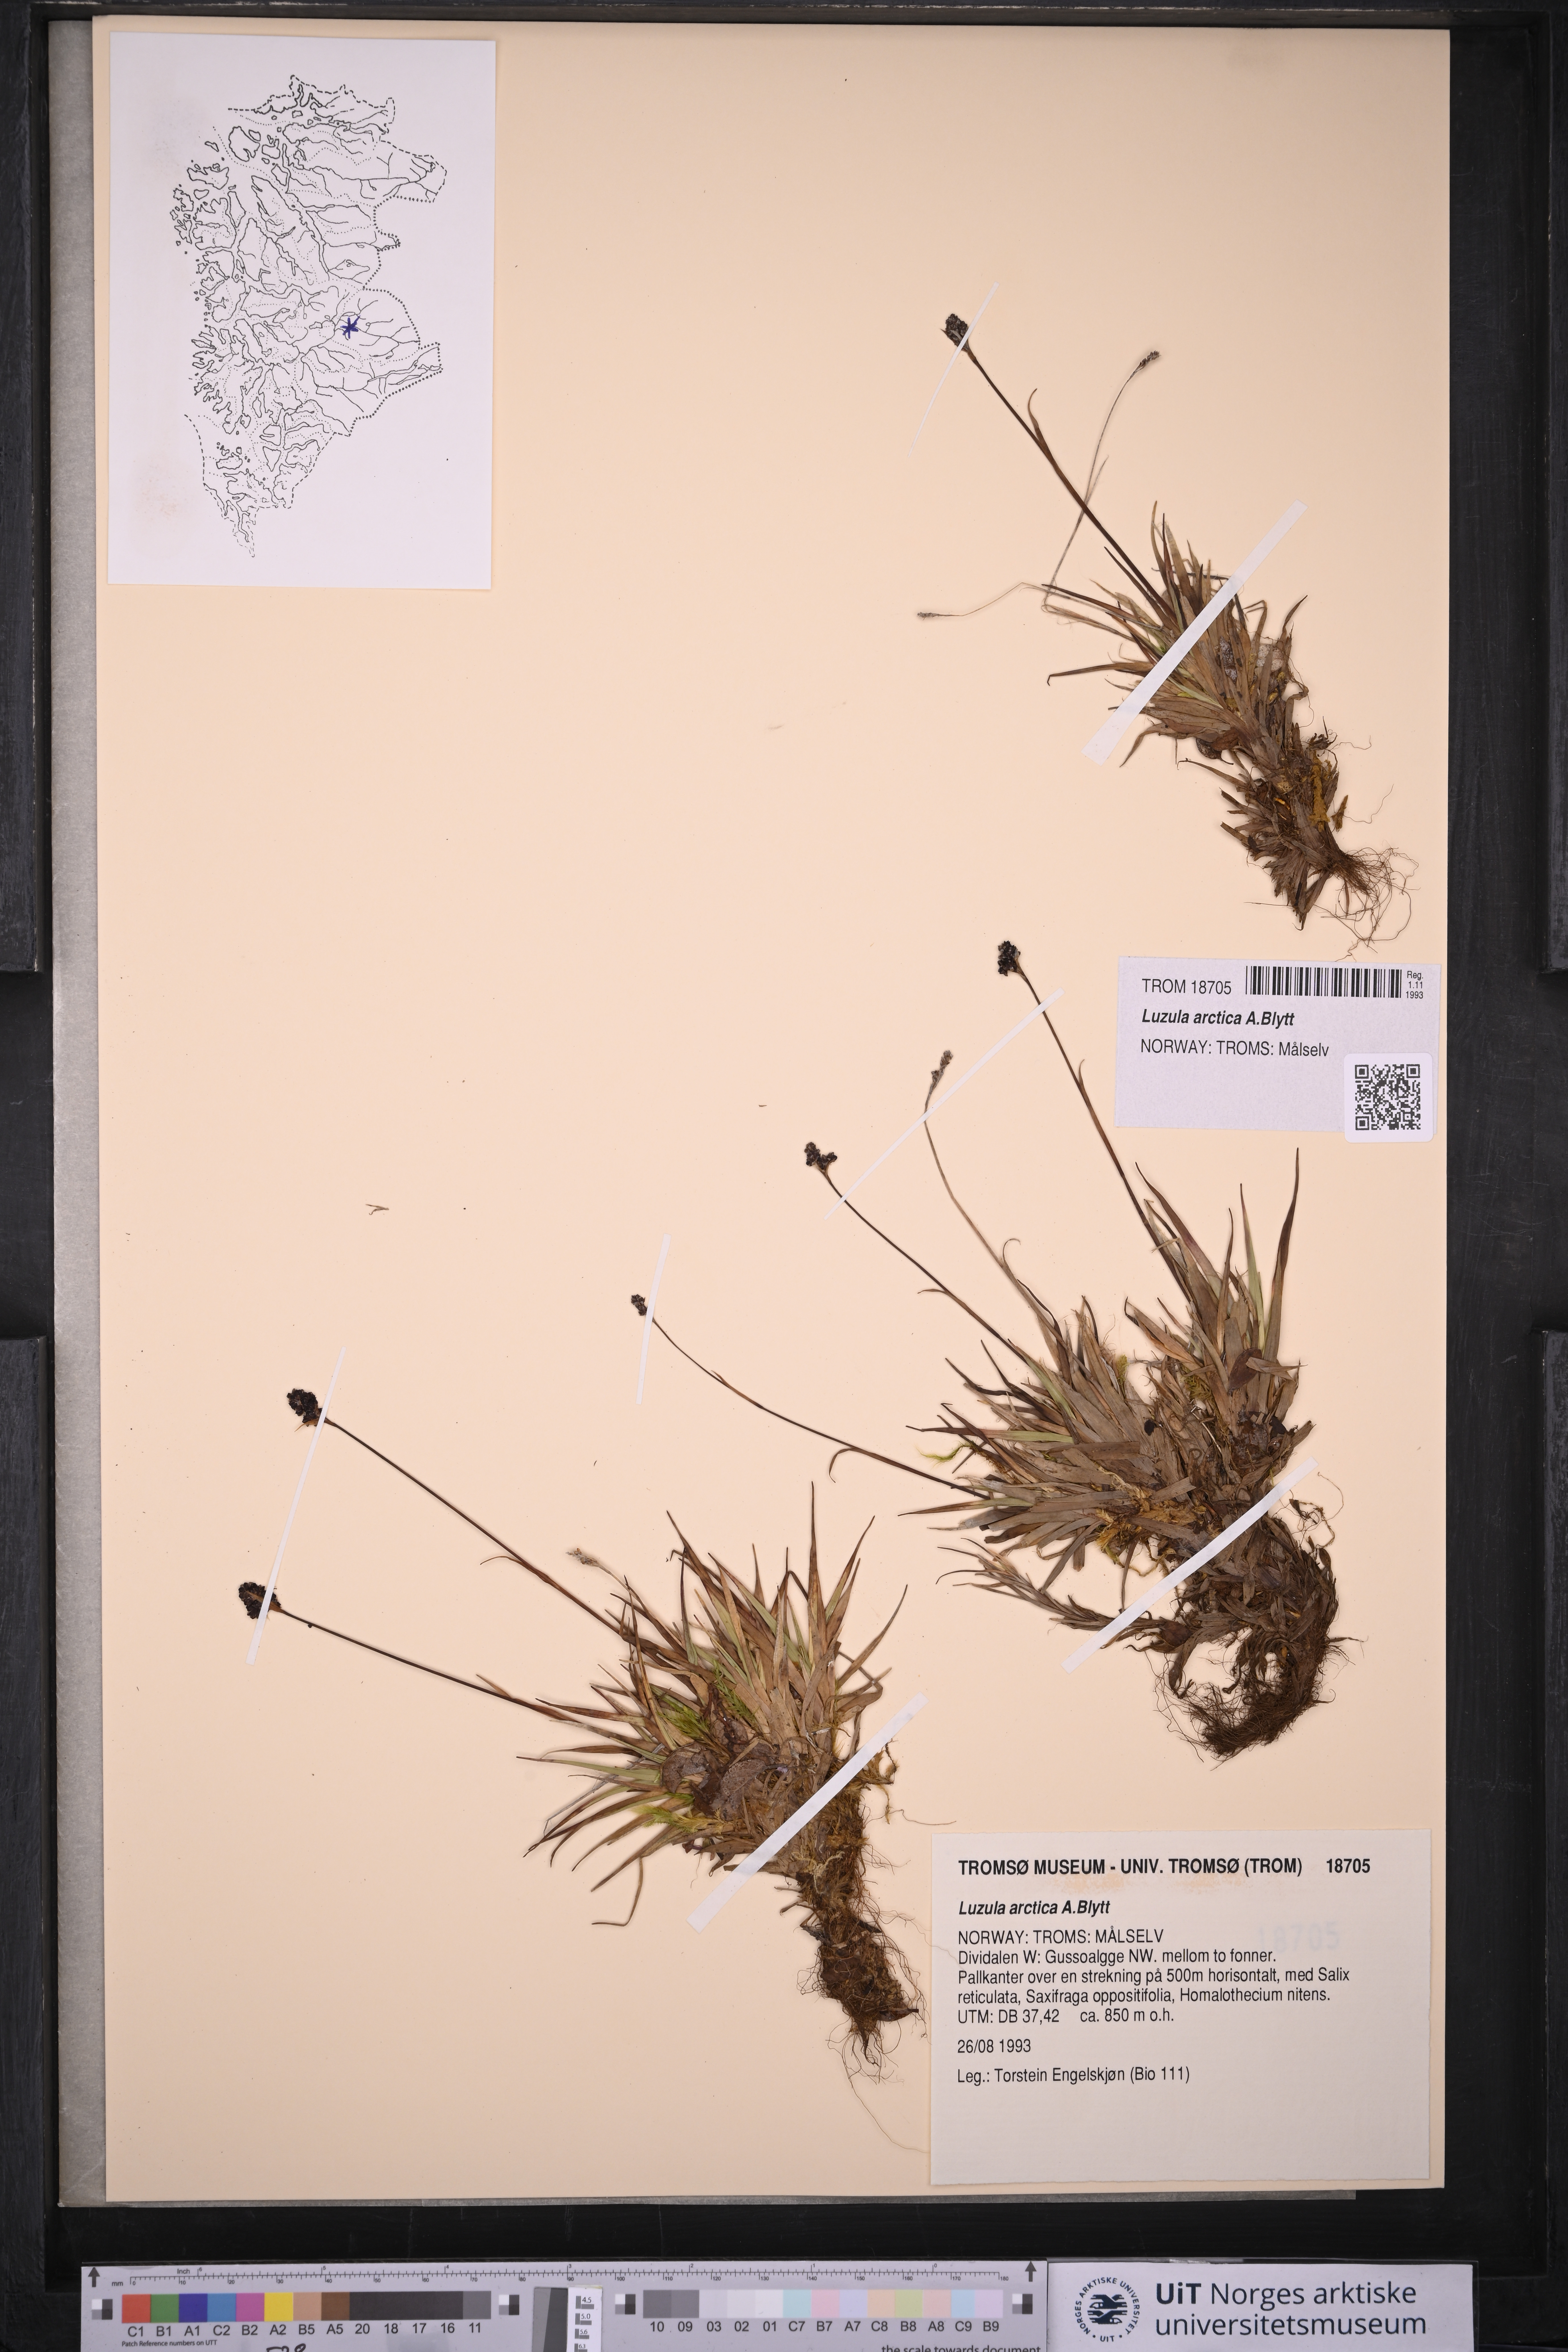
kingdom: Plantae
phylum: Tracheophyta
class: Liliopsida
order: Poales
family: Juncaceae
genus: Luzula
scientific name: Luzula nivalis
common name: Arctic woodrush
